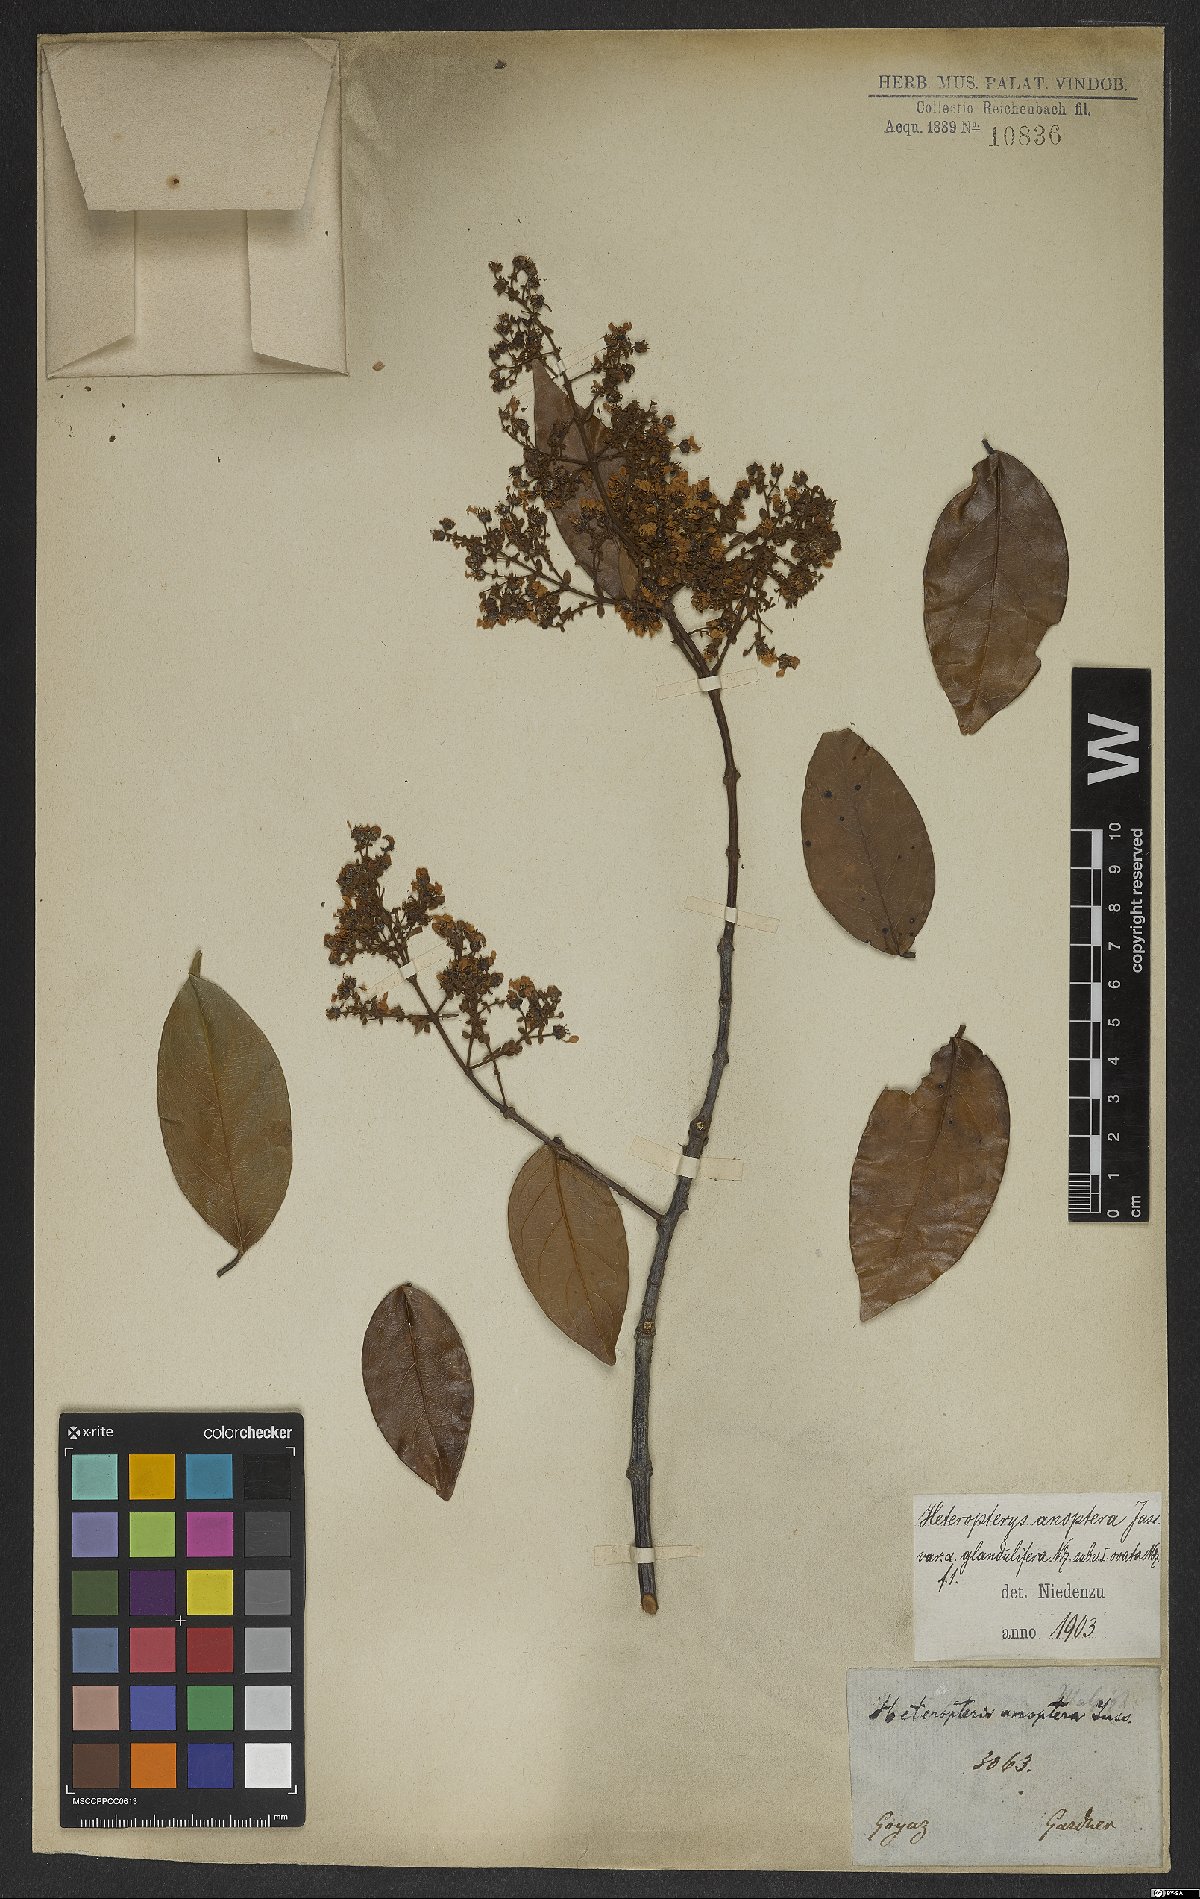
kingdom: Plantae
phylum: Tracheophyta
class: Magnoliopsida
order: Malpighiales
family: Malpighiaceae
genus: Heteropterys
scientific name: Heteropterys anoptera
